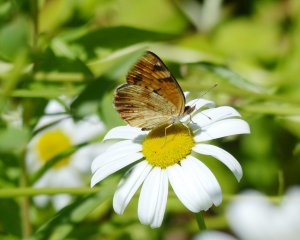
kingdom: Animalia
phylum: Arthropoda
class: Insecta
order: Lepidoptera
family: Nymphalidae
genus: Phyciodes
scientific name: Phyciodes tharos
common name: Northern Crescent
